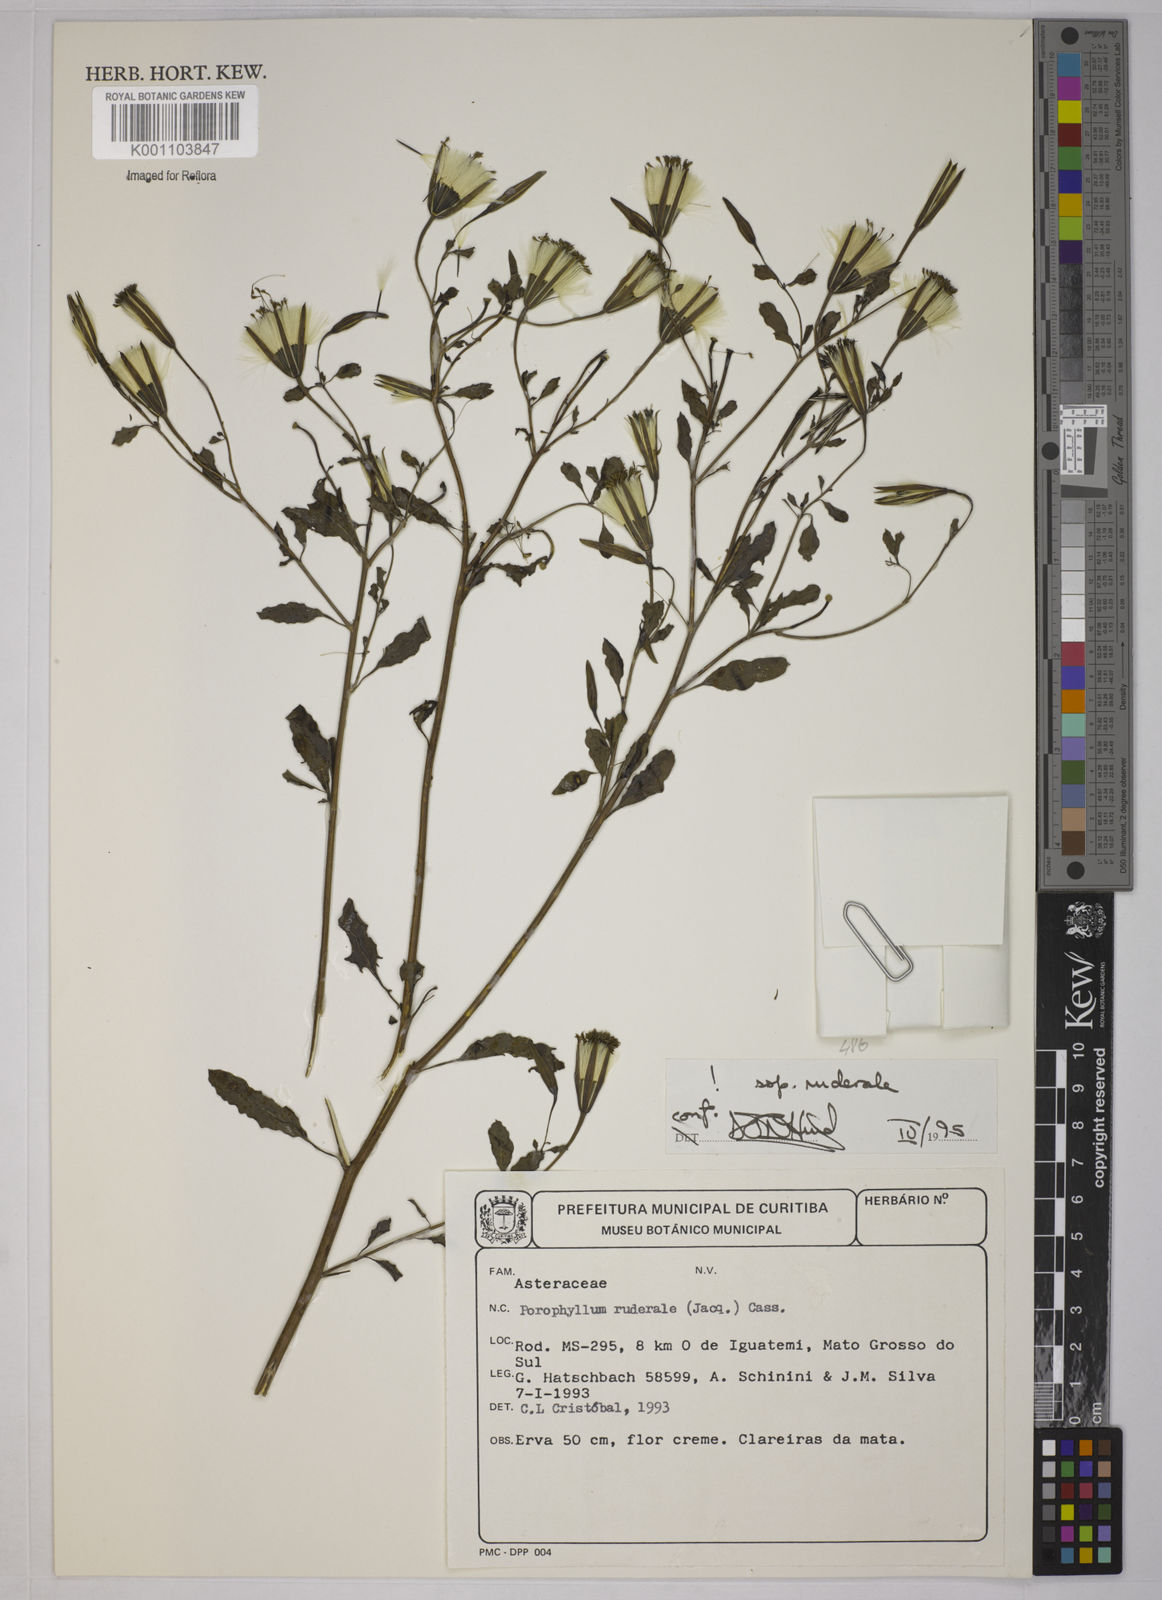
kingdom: Plantae
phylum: Tracheophyta
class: Magnoliopsida
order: Asterales
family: Asteraceae
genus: Porophyllum
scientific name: Porophyllum ruderale
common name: Yerba porosa
